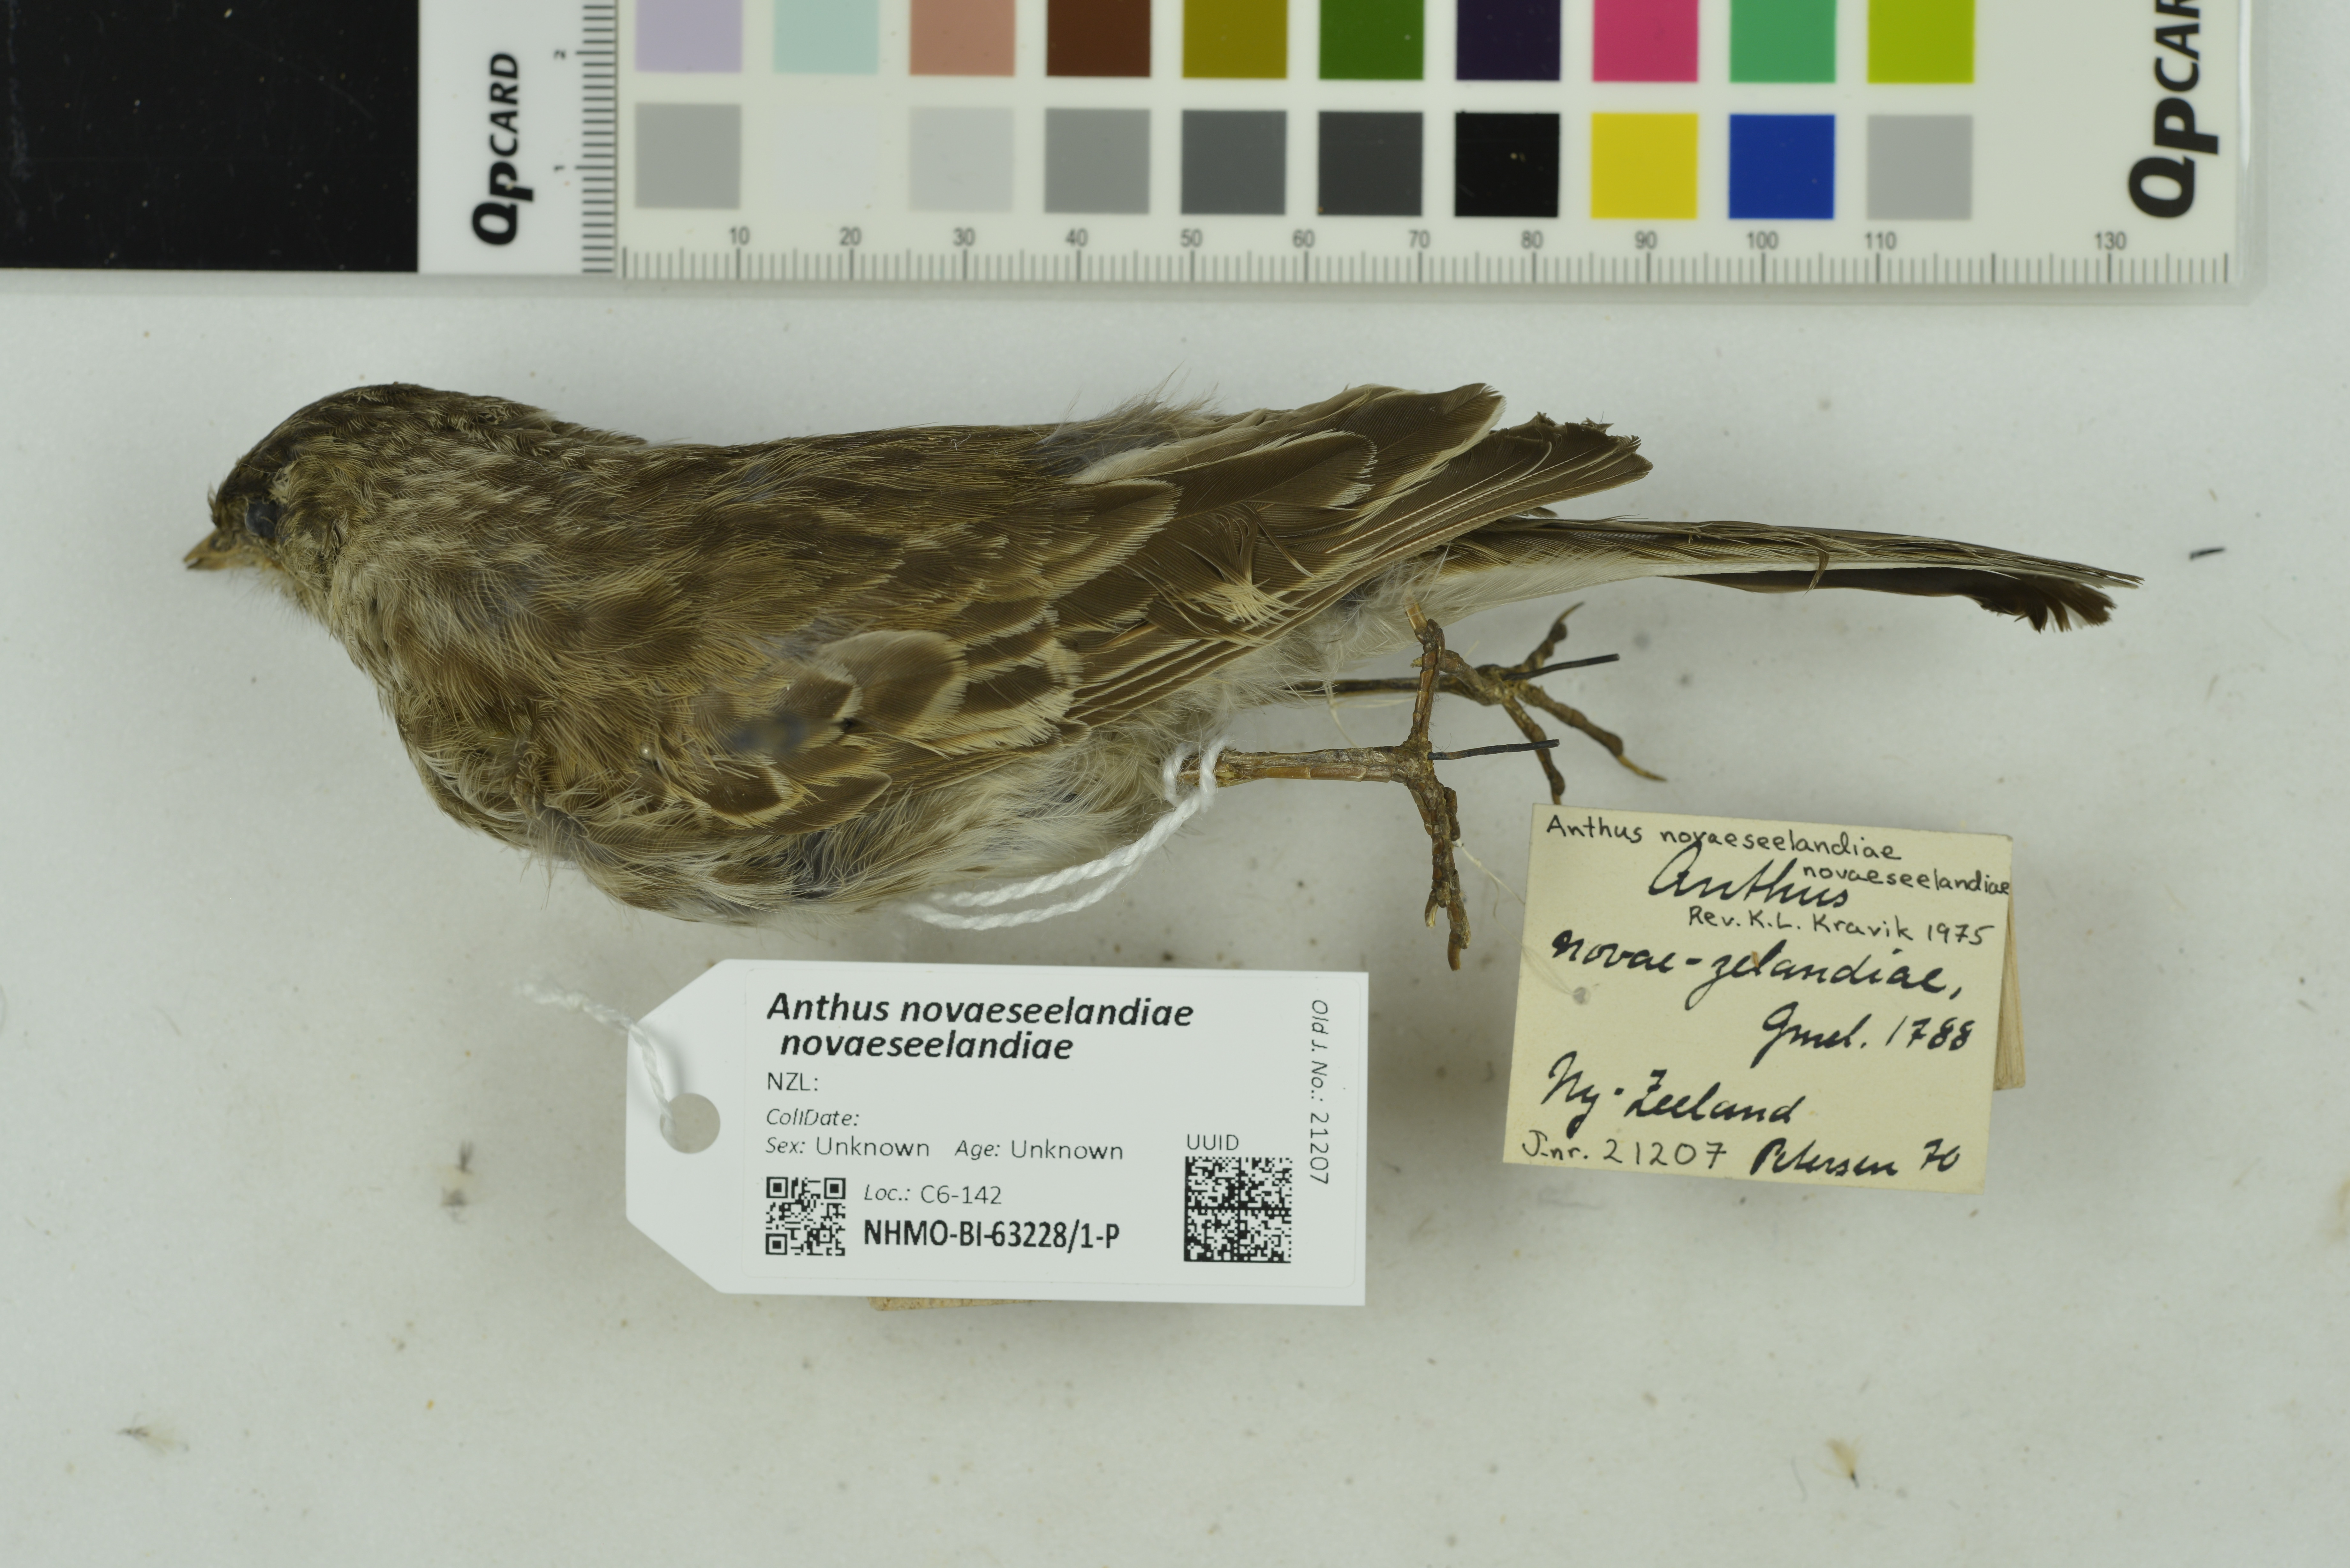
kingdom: Animalia
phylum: Chordata
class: Aves
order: Passeriformes
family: Motacillidae
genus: Anthus
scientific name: Anthus novaeseelandiae
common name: New zealand pipit
